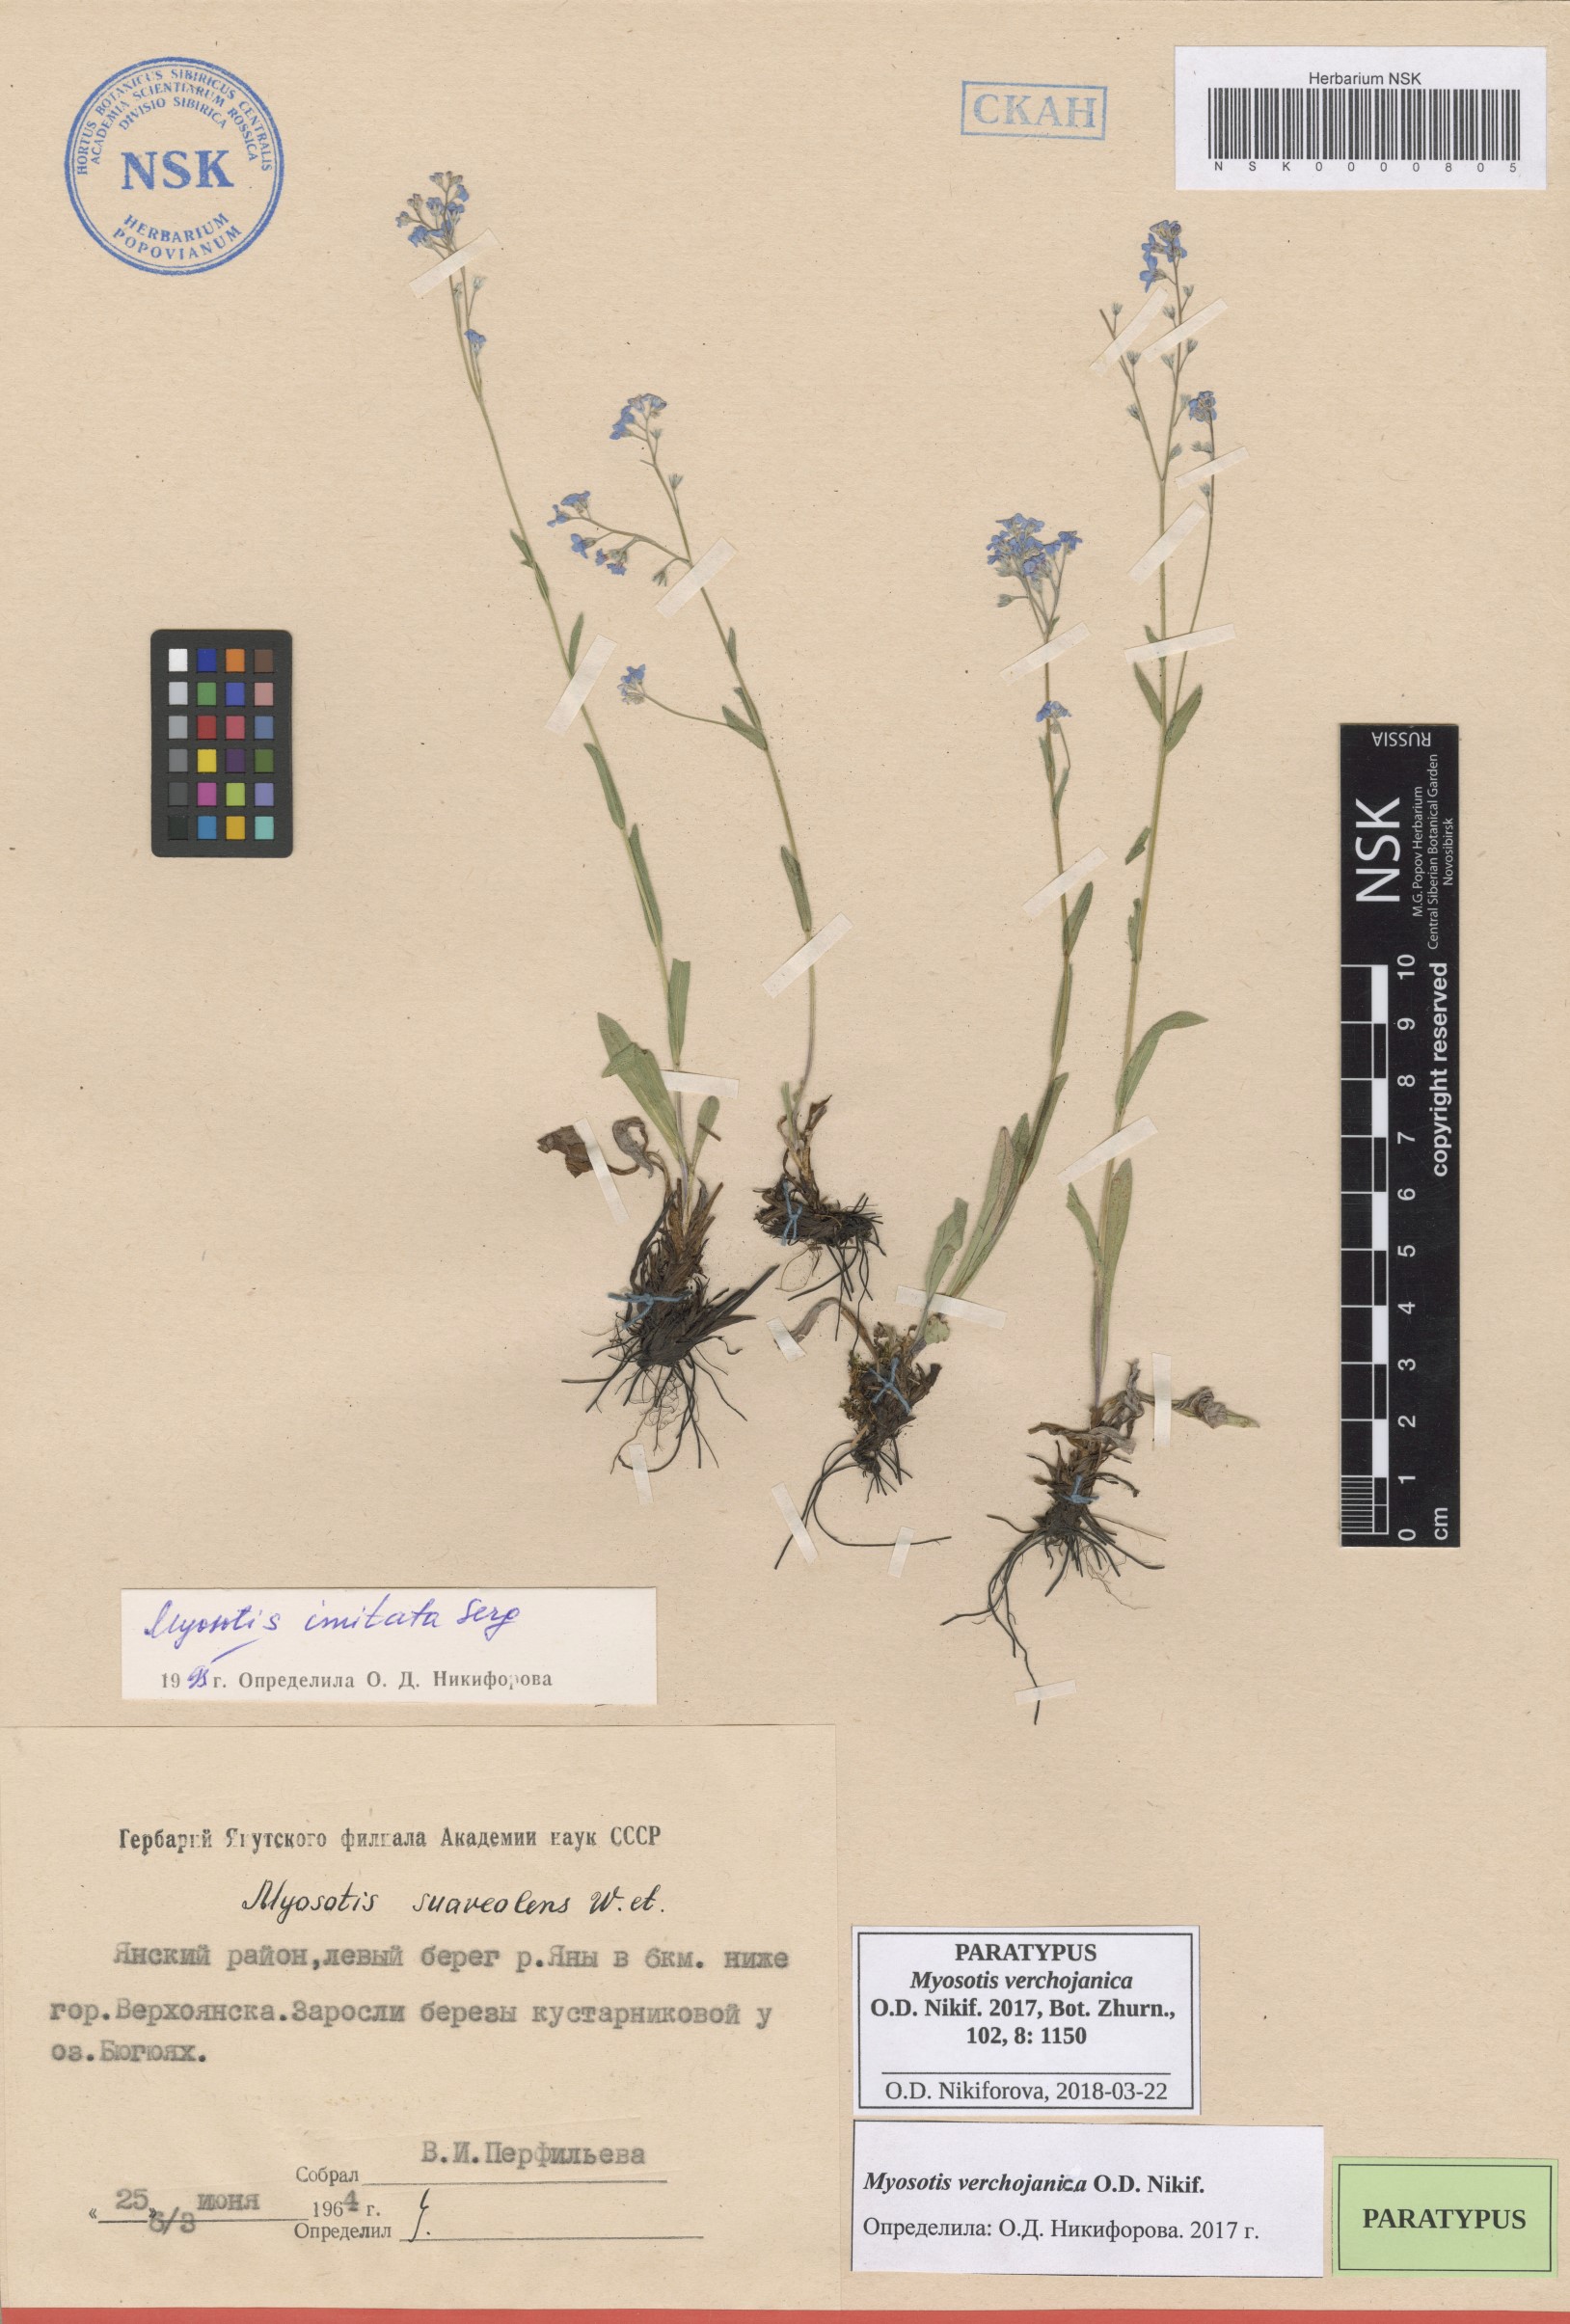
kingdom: Plantae
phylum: Tracheophyta
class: Magnoliopsida
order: Boraginales
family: Boraginaceae
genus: Myosotis
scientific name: Myosotis
